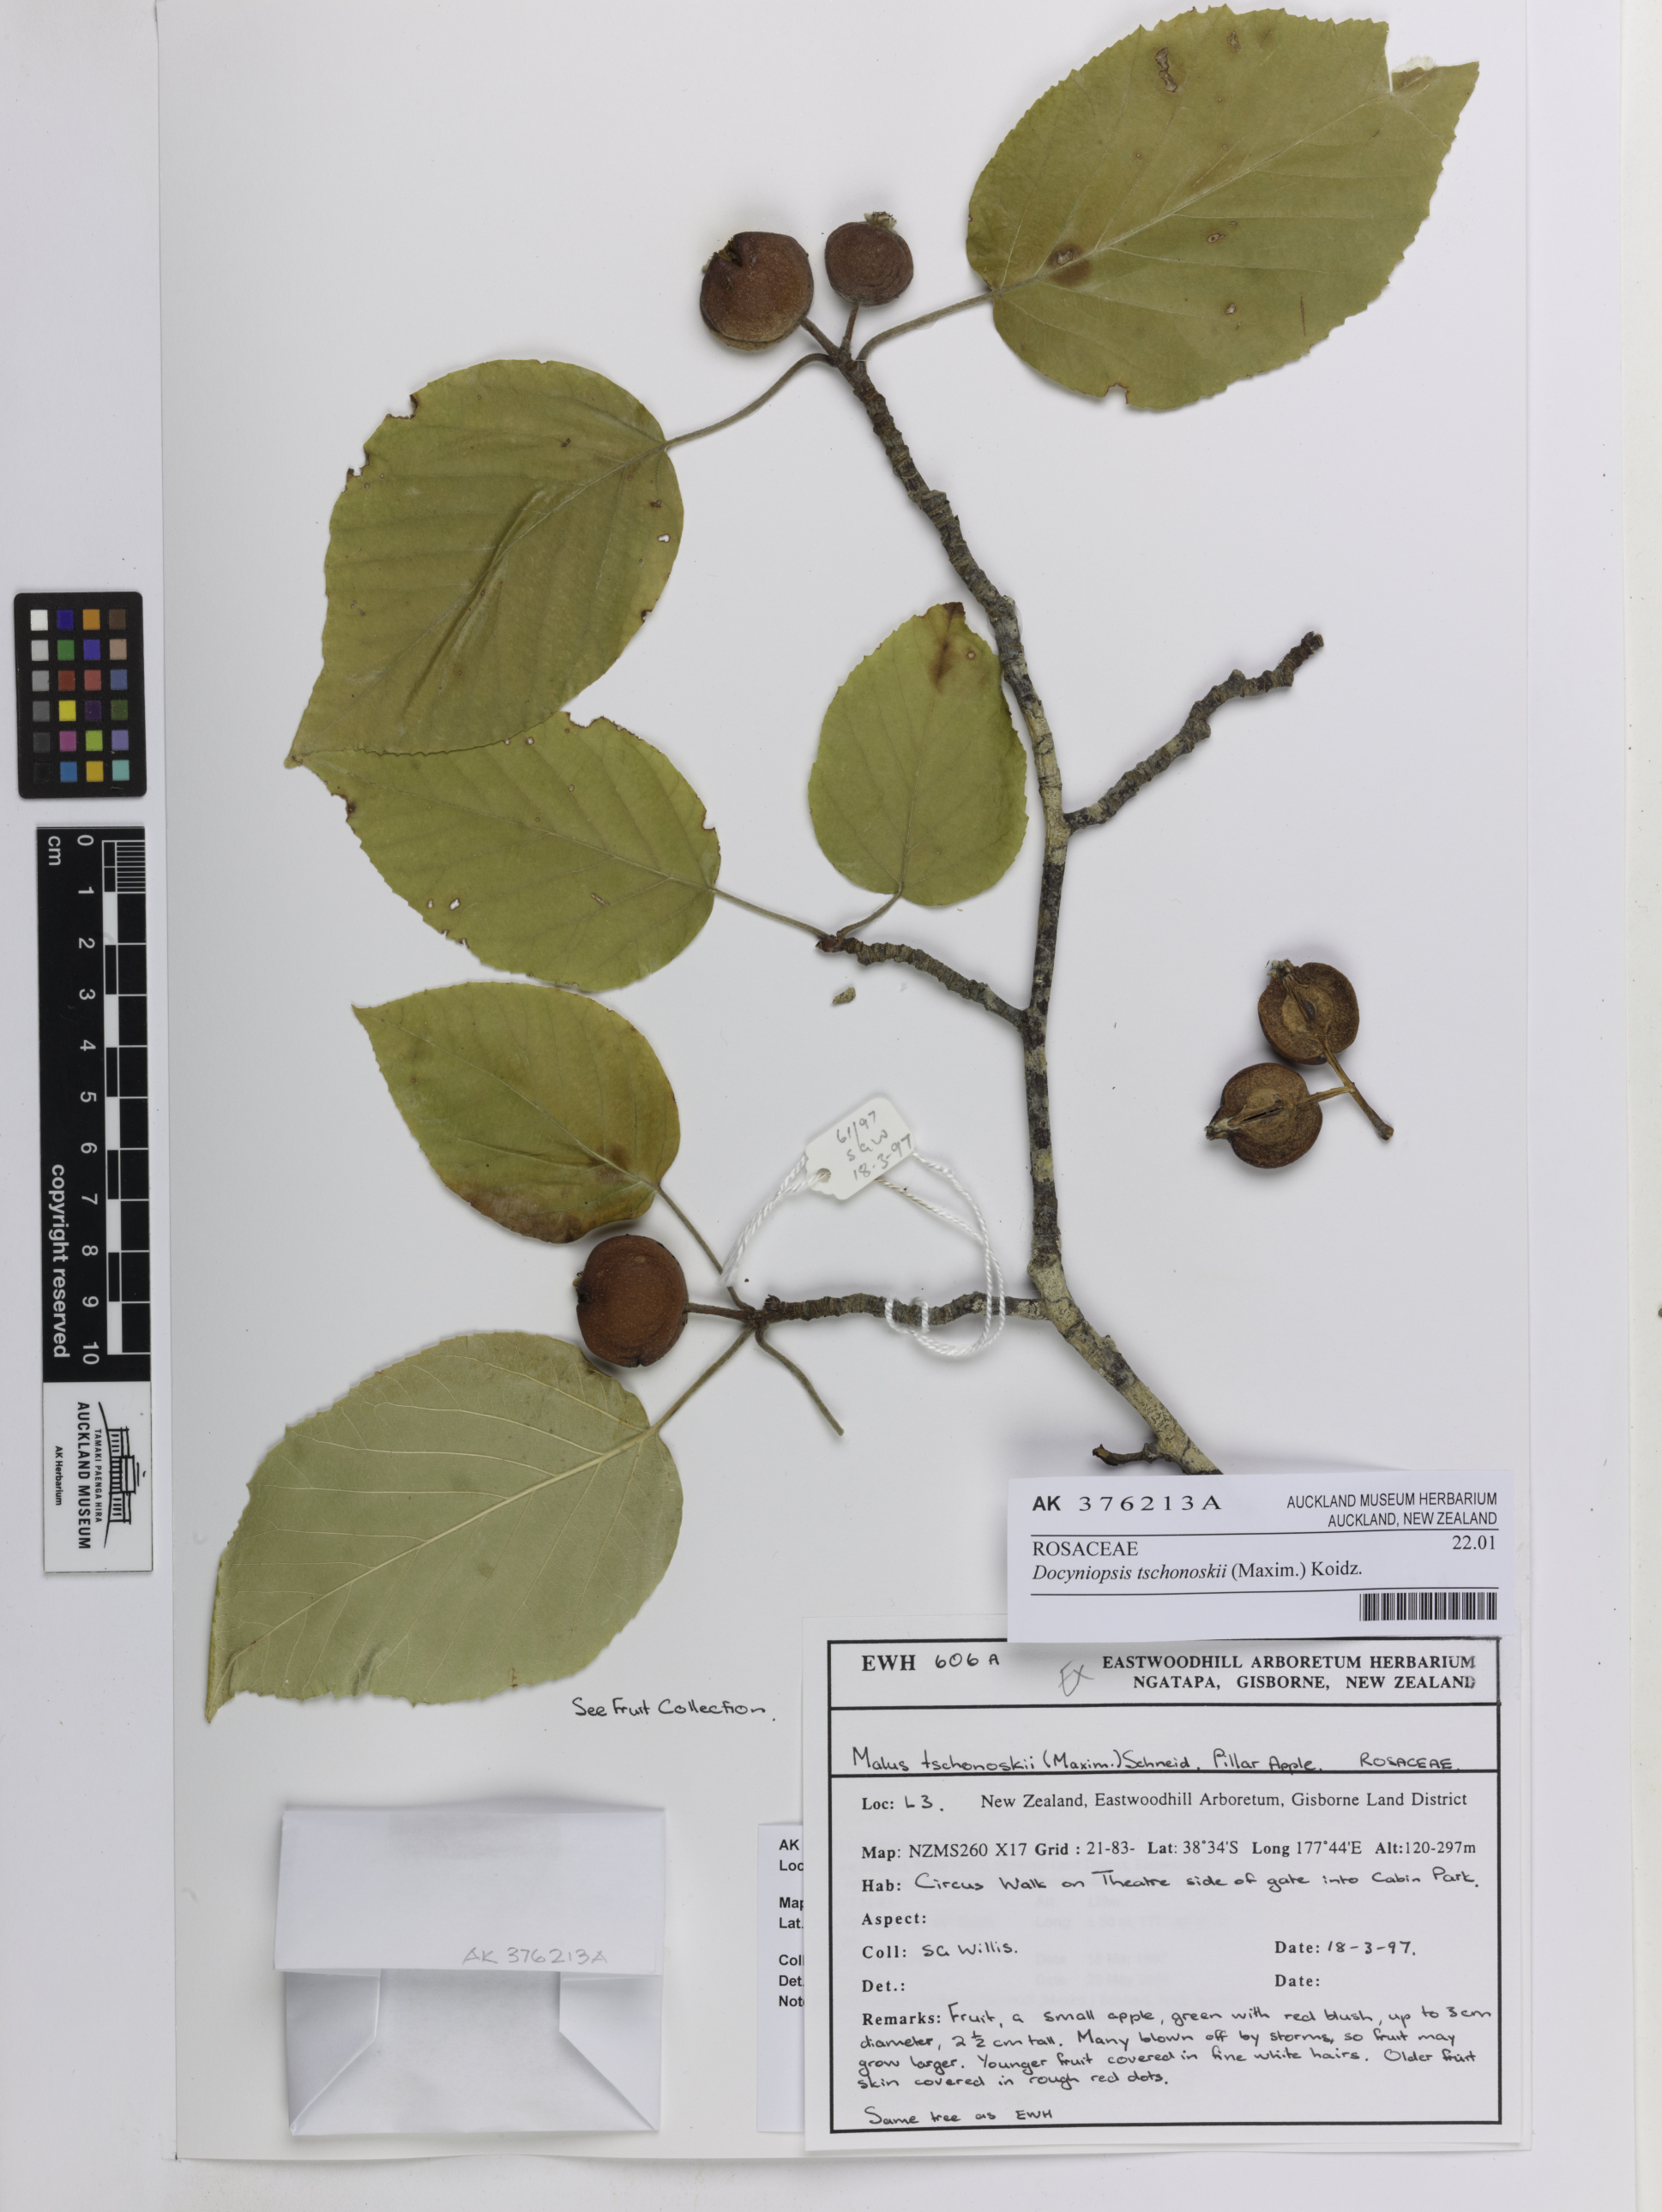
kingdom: Plantae
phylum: Tracheophyta
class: Magnoliopsida
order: Rosales
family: Rosaceae
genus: Malus
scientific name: Malus tschonoskii
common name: Pillar apple
